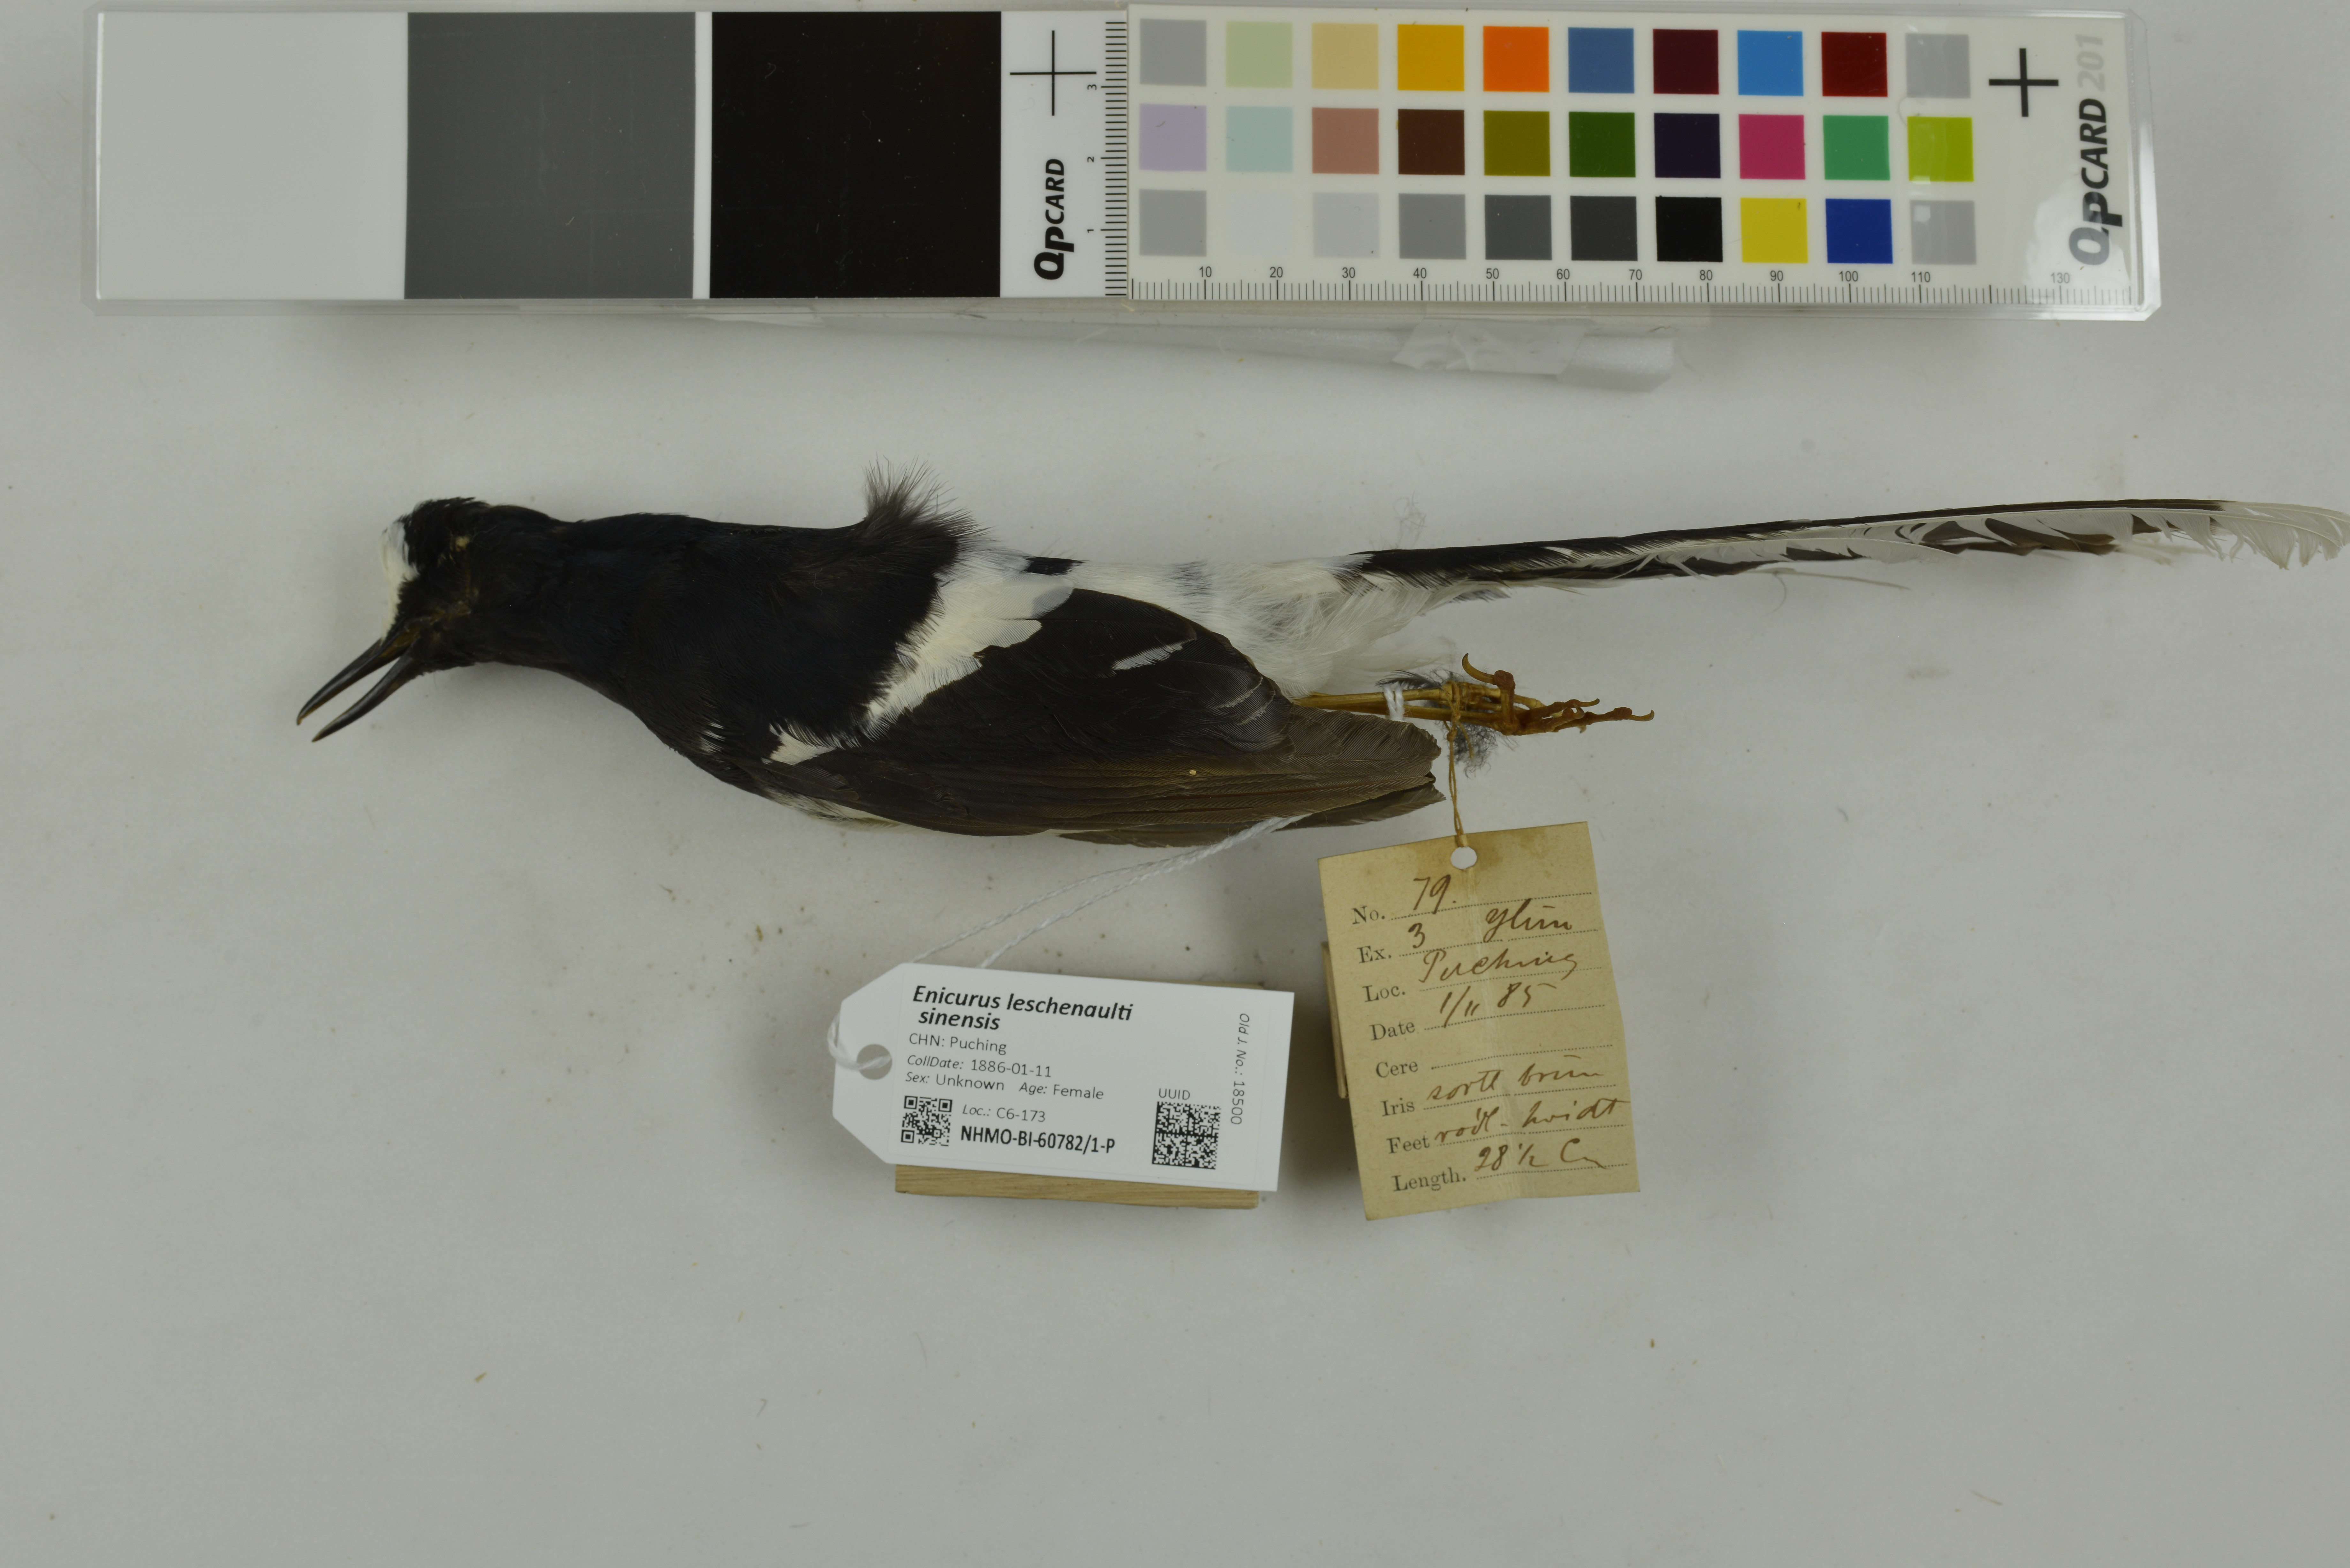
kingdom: Animalia
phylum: Chordata
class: Aves
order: Passeriformes
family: Muscicapidae
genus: Enicurus
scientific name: Enicurus leschenaulti
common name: White-crowned forktail
